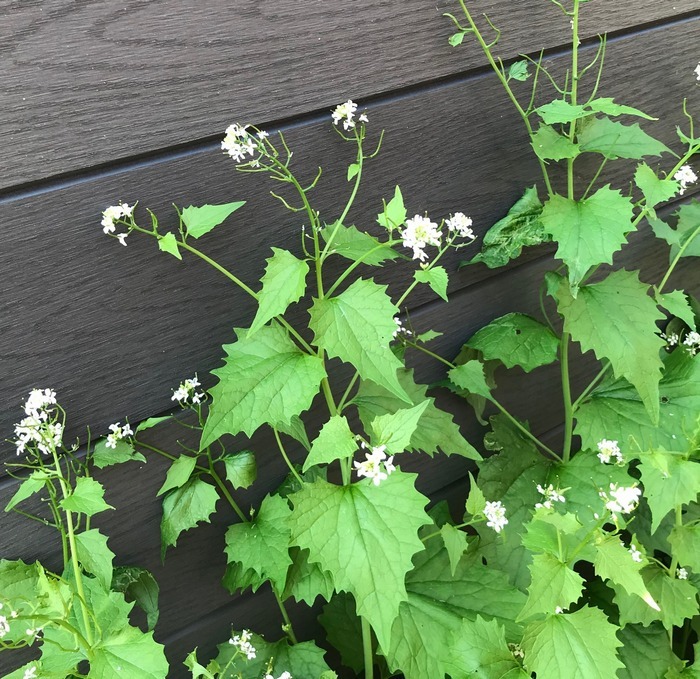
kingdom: Plantae
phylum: Tracheophyta
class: Magnoliopsida
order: Brassicales
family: Brassicaceae
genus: Alliaria
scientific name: Alliaria petiolata
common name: Løgkarse
